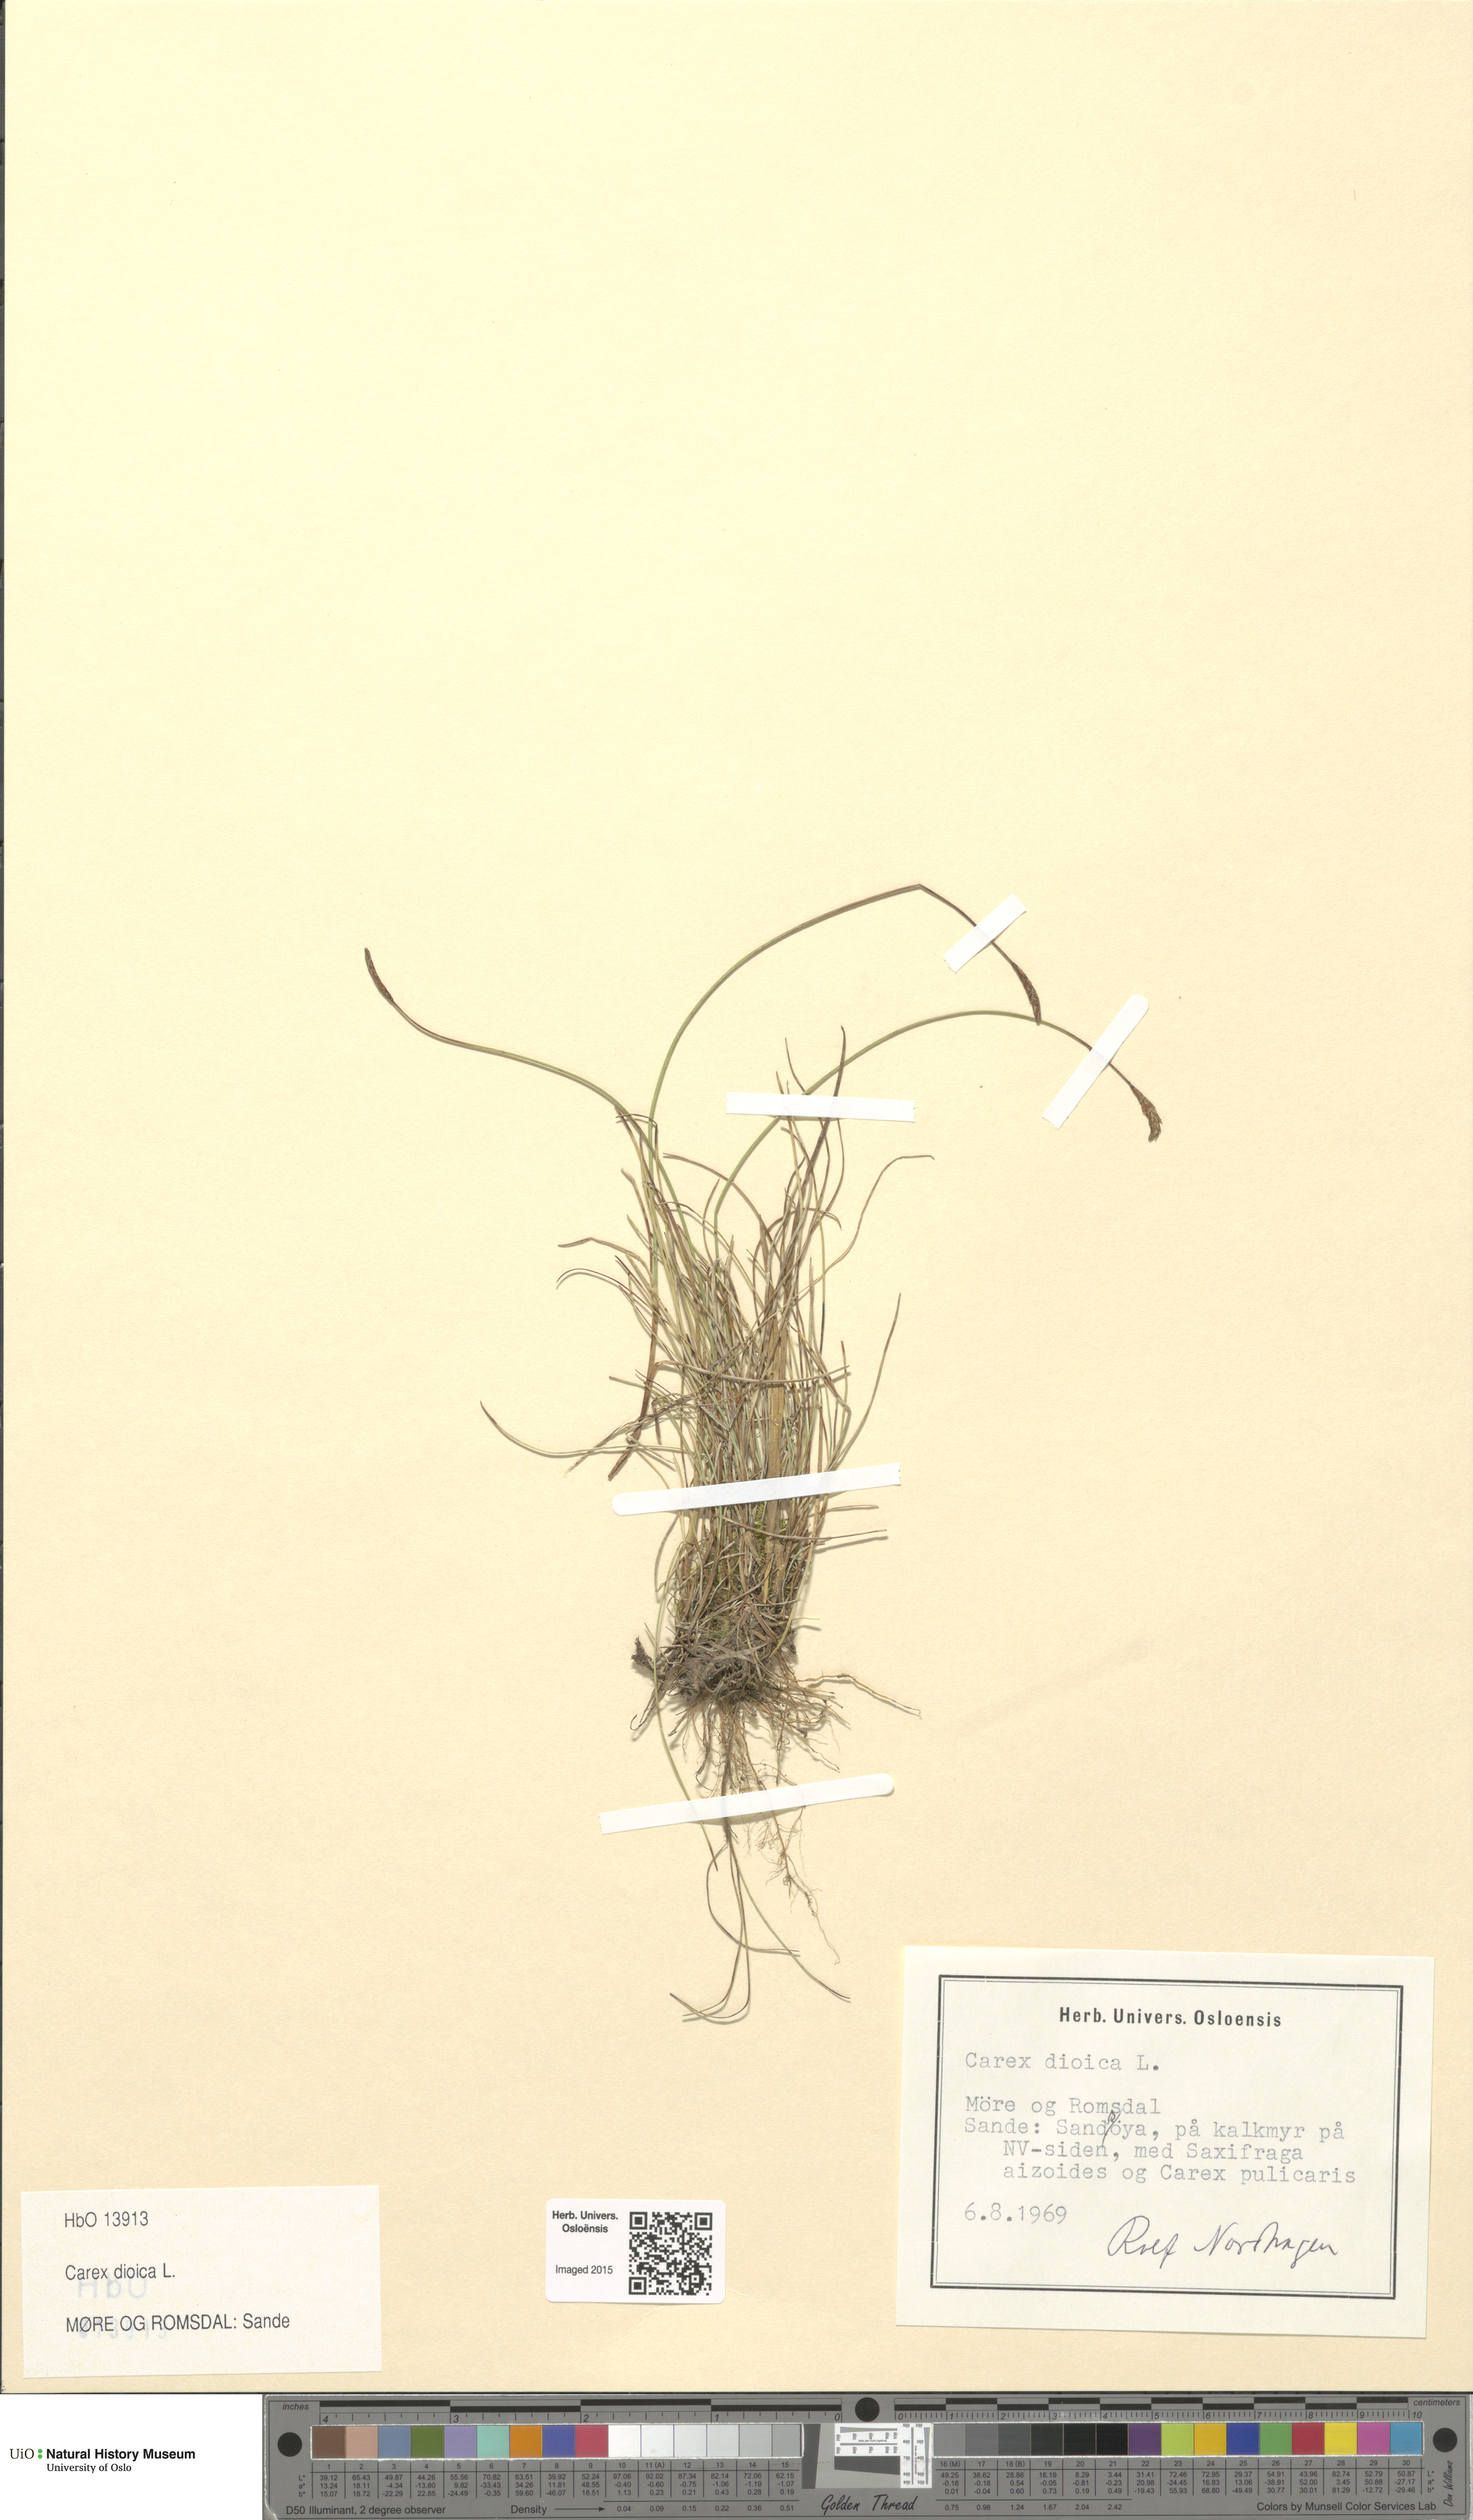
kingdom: Plantae
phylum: Tracheophyta
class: Liliopsida
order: Poales
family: Cyperaceae
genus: Carex
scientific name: Carex dioica
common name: Dioecious sedge
